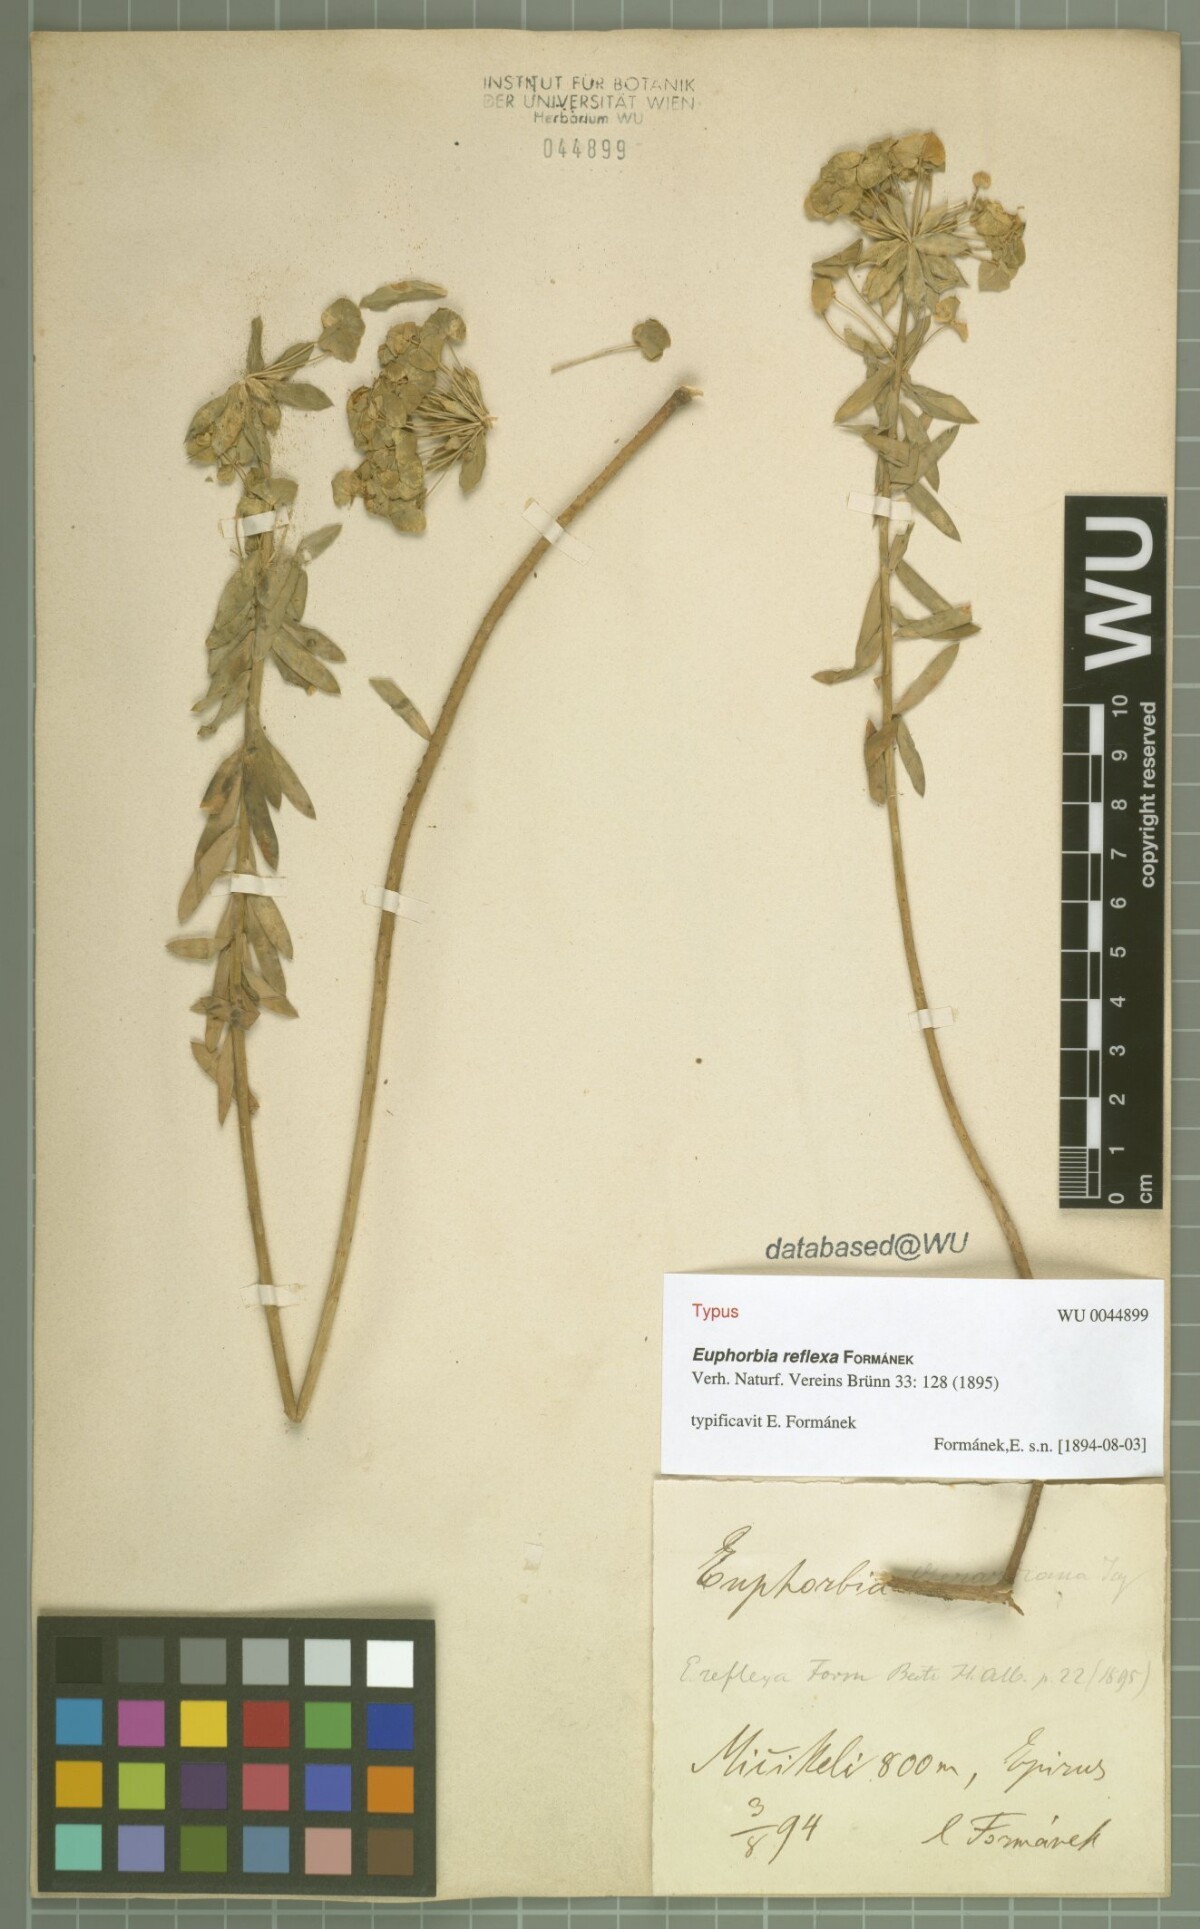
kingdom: Plantae
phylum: Tracheophyta
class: Magnoliopsida
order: Malpighiales
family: Euphorbiaceae
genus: Euphorbia
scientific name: Euphorbia seguieriana
